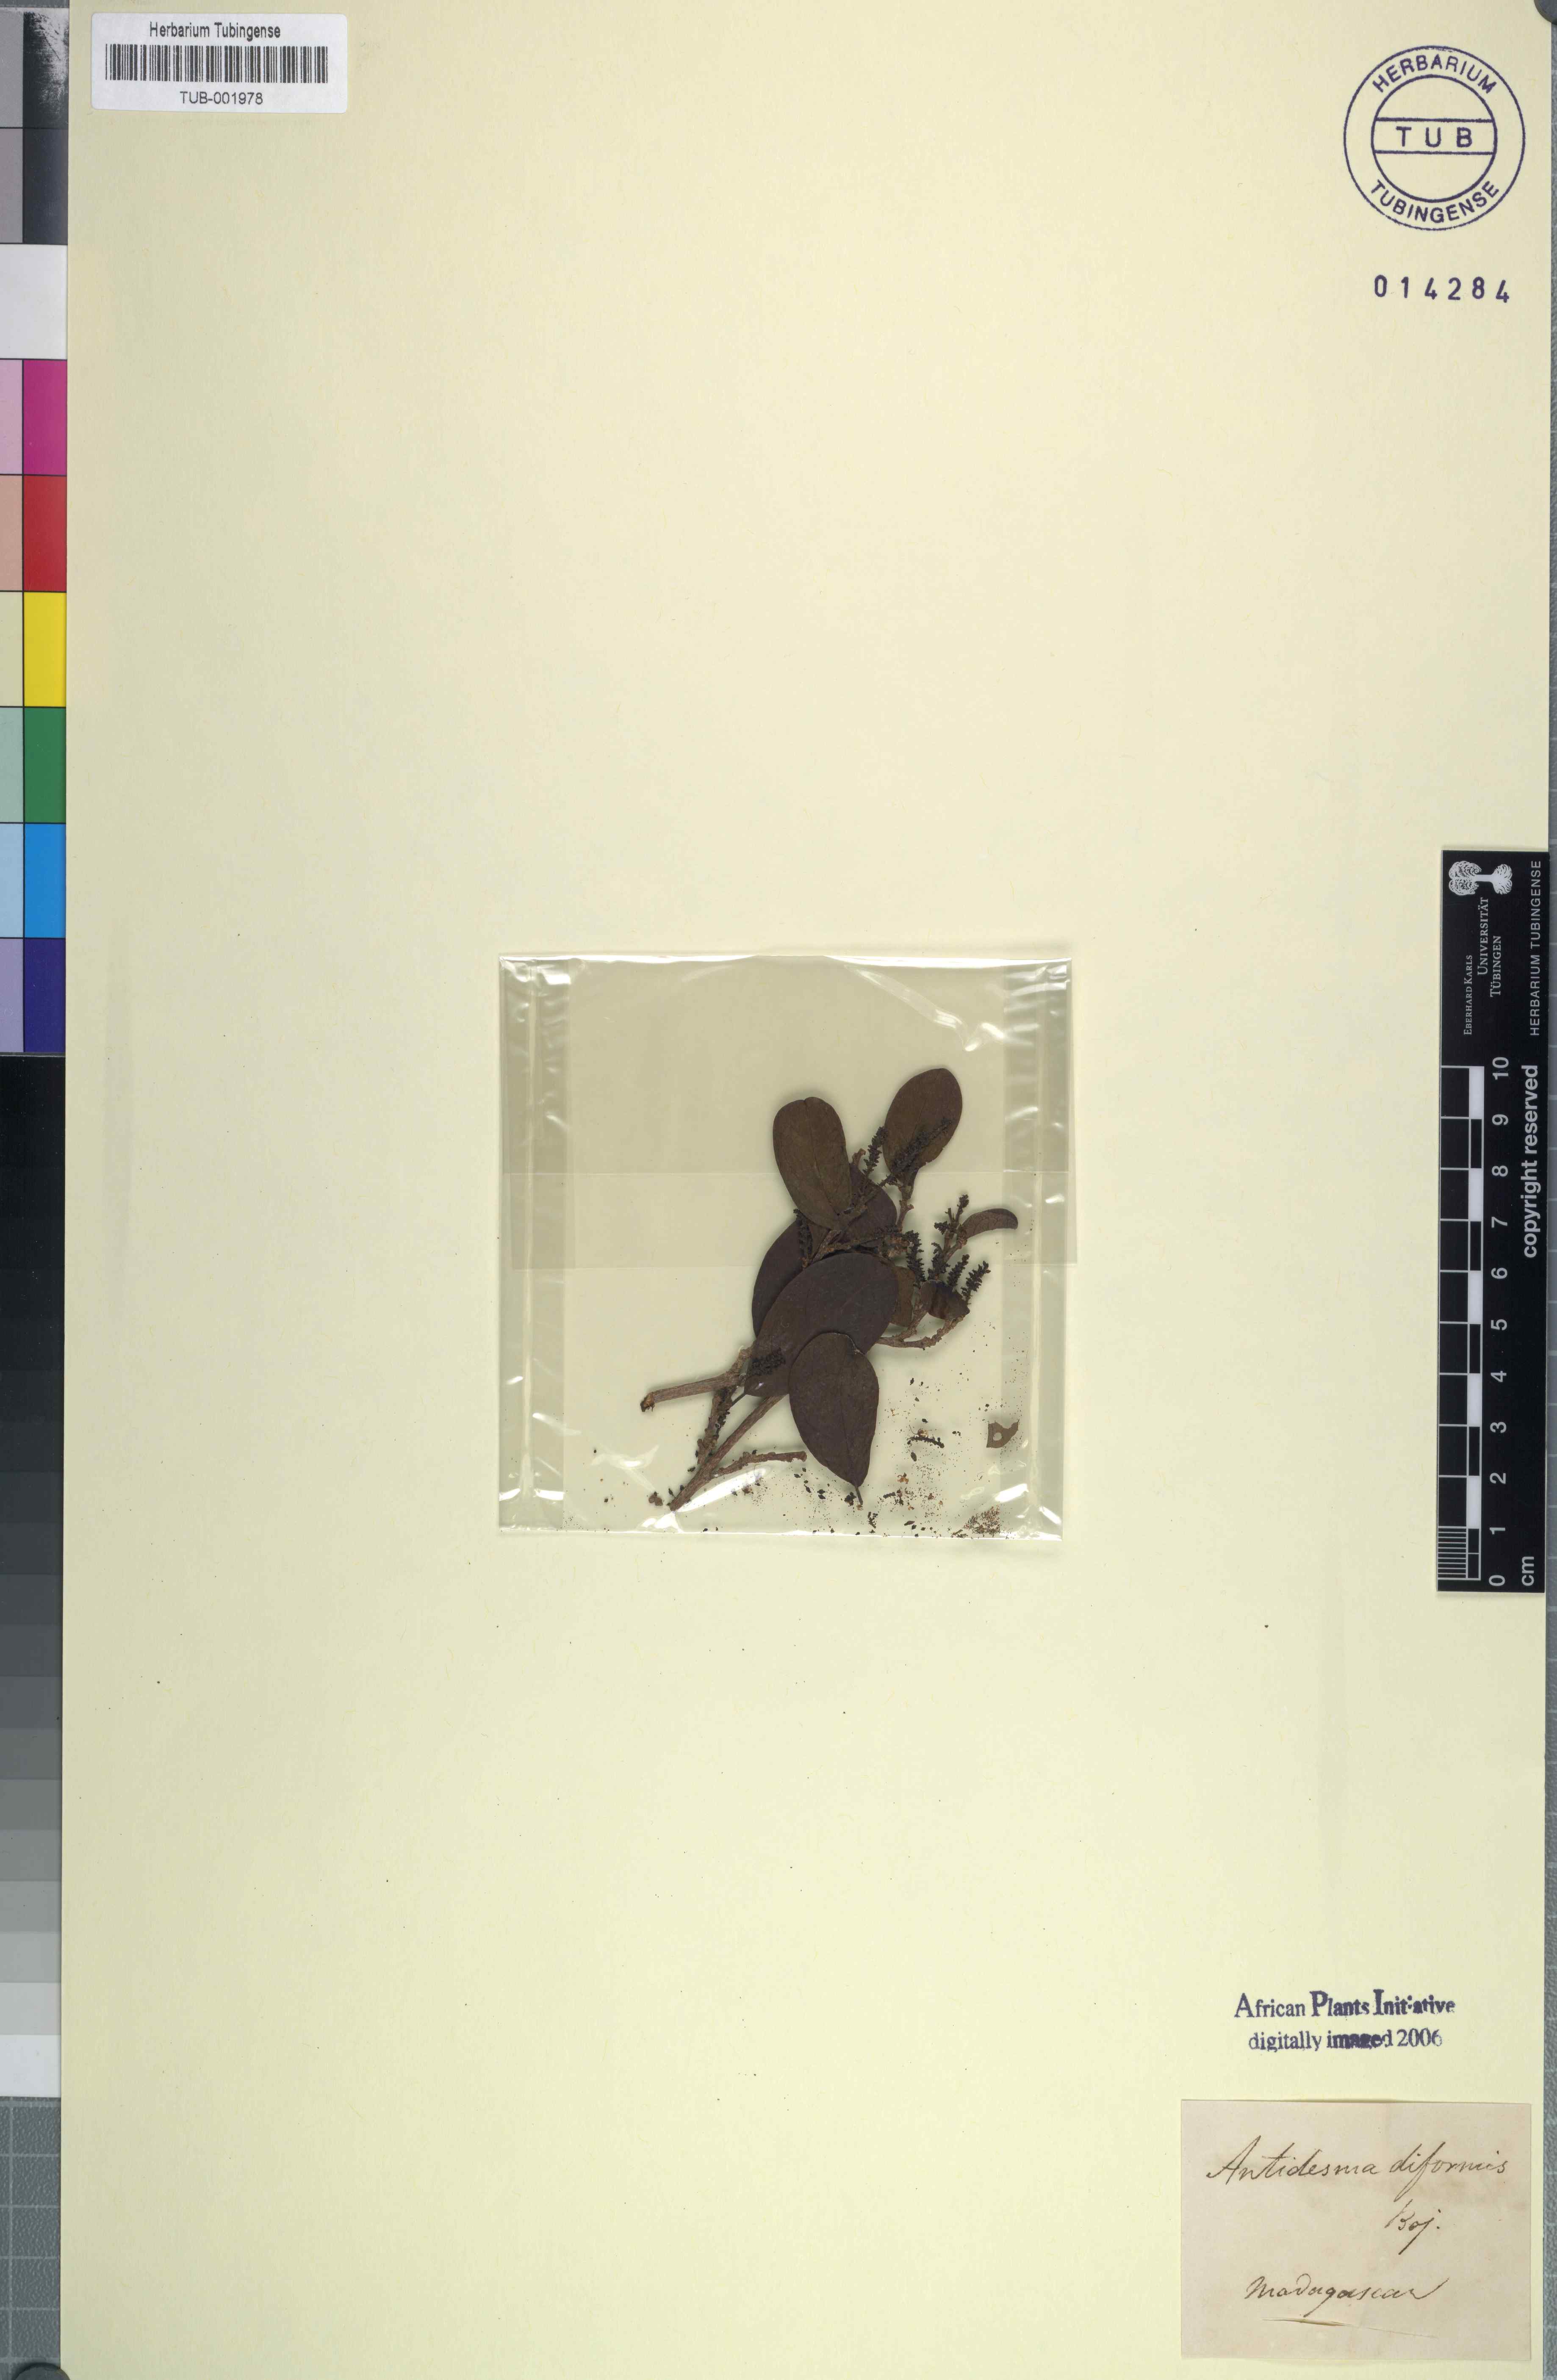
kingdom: Plantae
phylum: Tracheophyta
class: Magnoliopsida
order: Malpighiales
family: Phyllanthaceae
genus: Antidesma
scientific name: Antidesma venosum
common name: Tassel-berry
